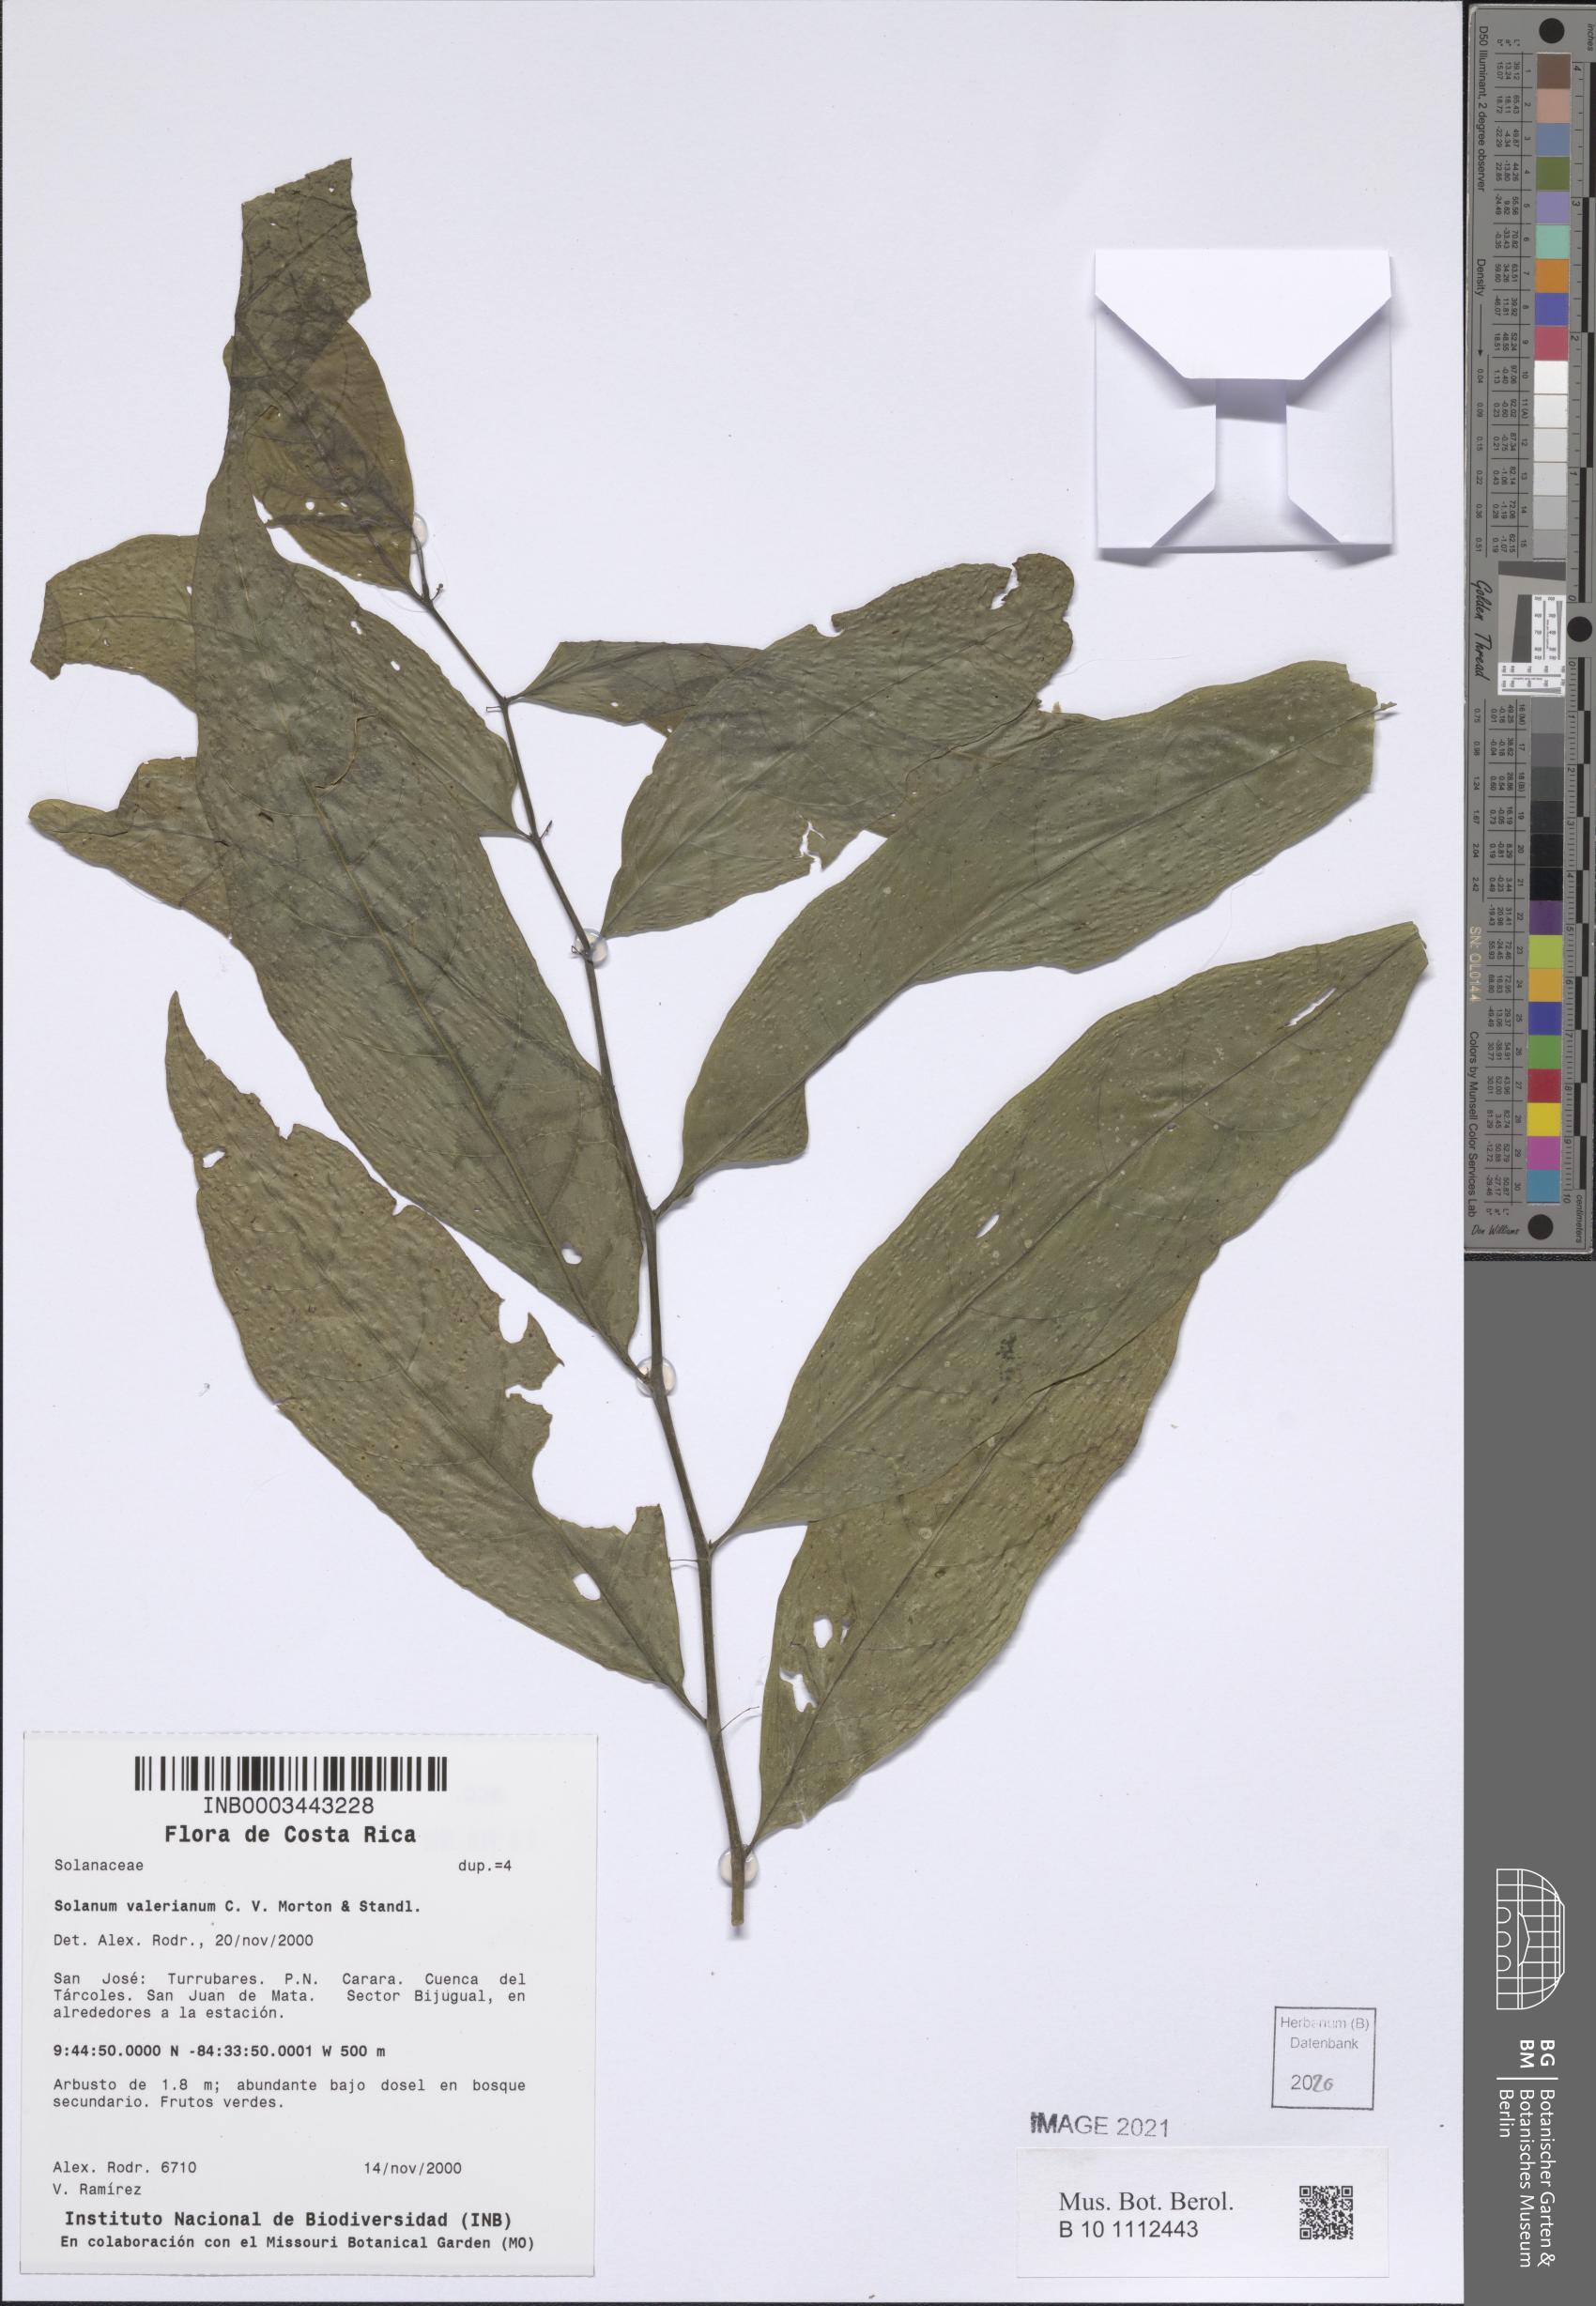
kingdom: Plantae
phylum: Tracheophyta
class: Magnoliopsida
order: Solanales
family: Solanaceae
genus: Solanum
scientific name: Solanum valerianum
